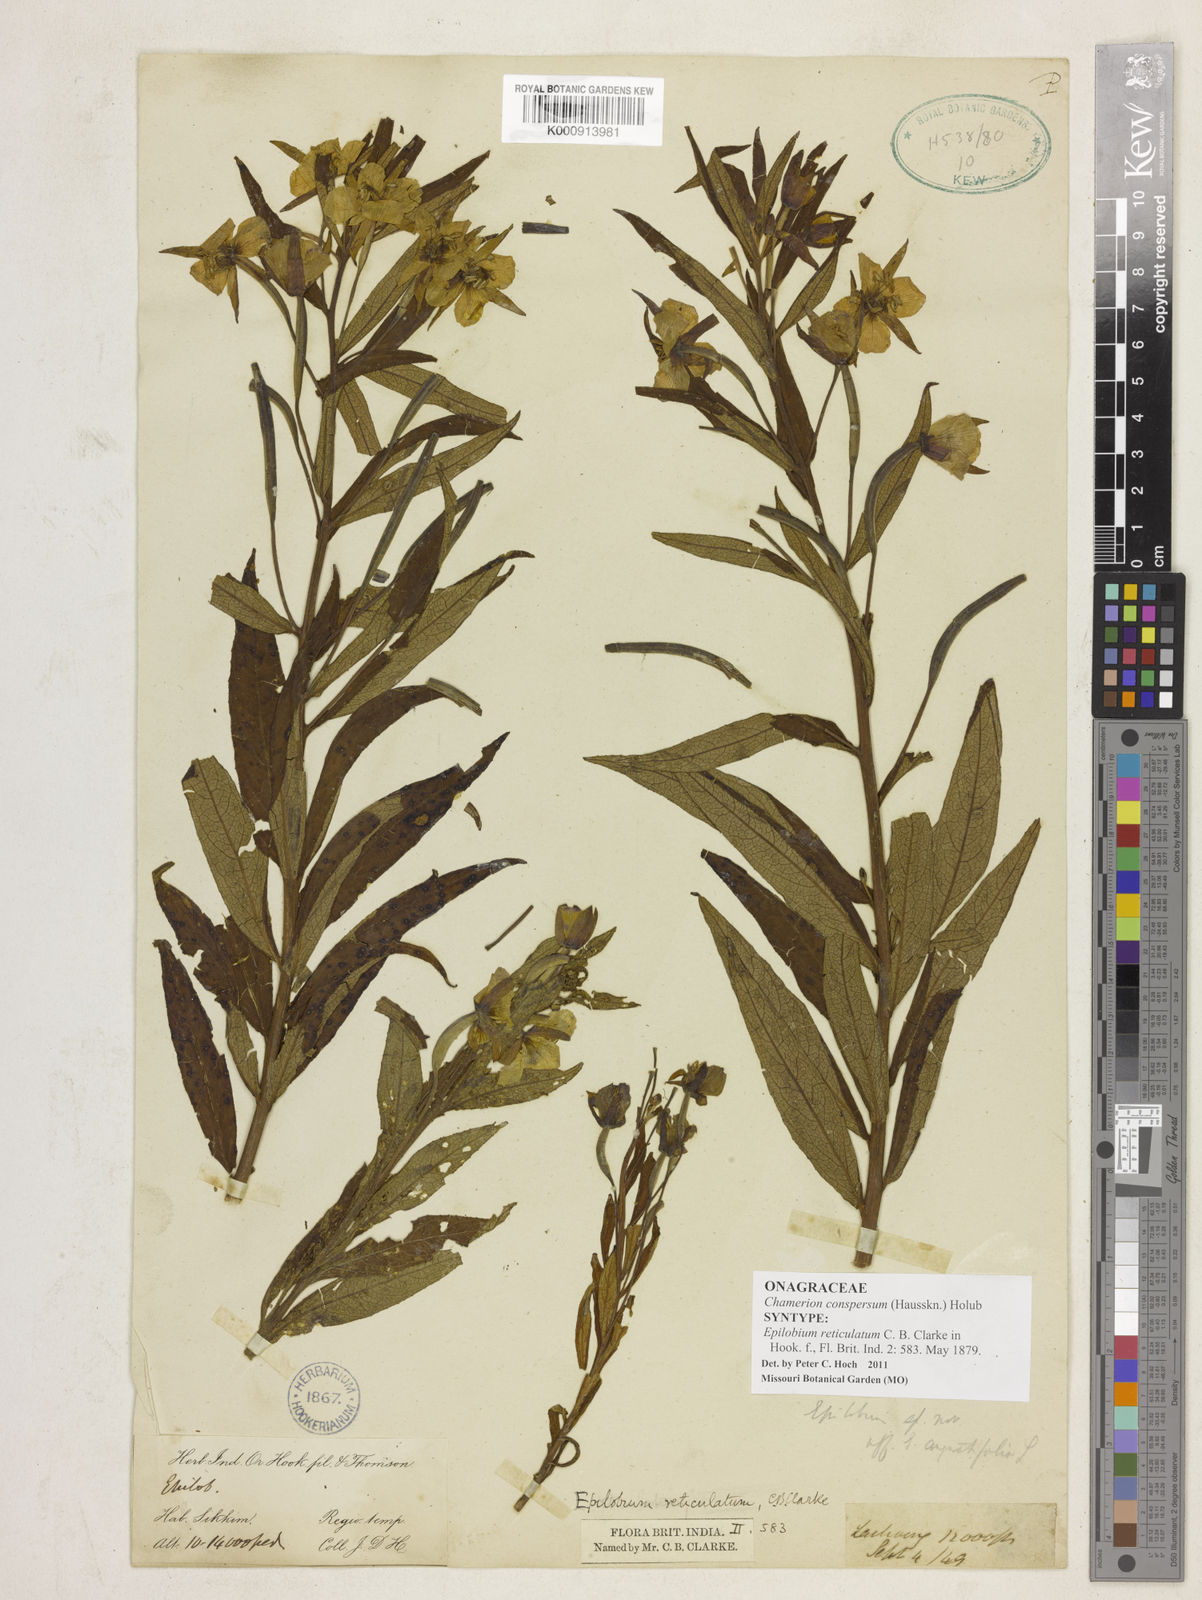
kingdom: Plantae
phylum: Tracheophyta
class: Magnoliopsida
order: Myrtales
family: Onagraceae
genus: Chamaenerion
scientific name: Chamaenerion conspersum
